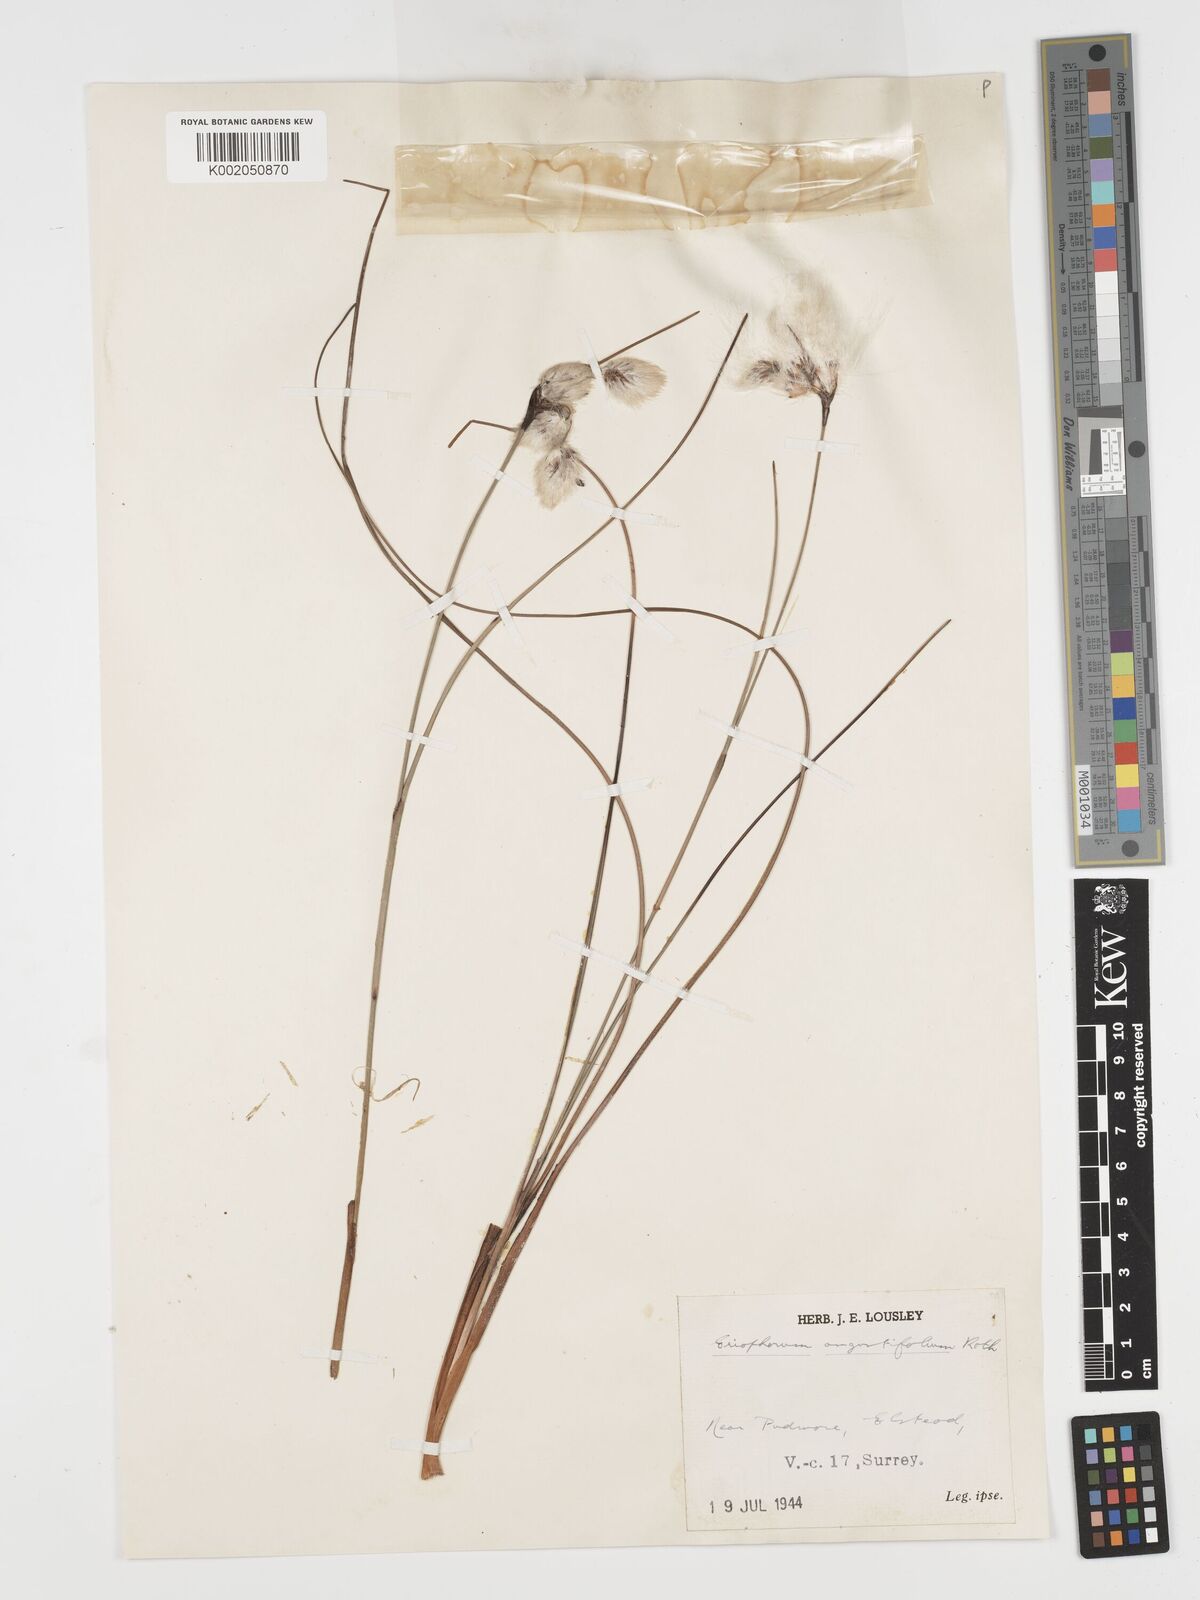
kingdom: Plantae
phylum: Tracheophyta
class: Liliopsida
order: Poales
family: Cyperaceae
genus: Eriophorum
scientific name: Eriophorum angustifolium
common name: Common cottongrass
